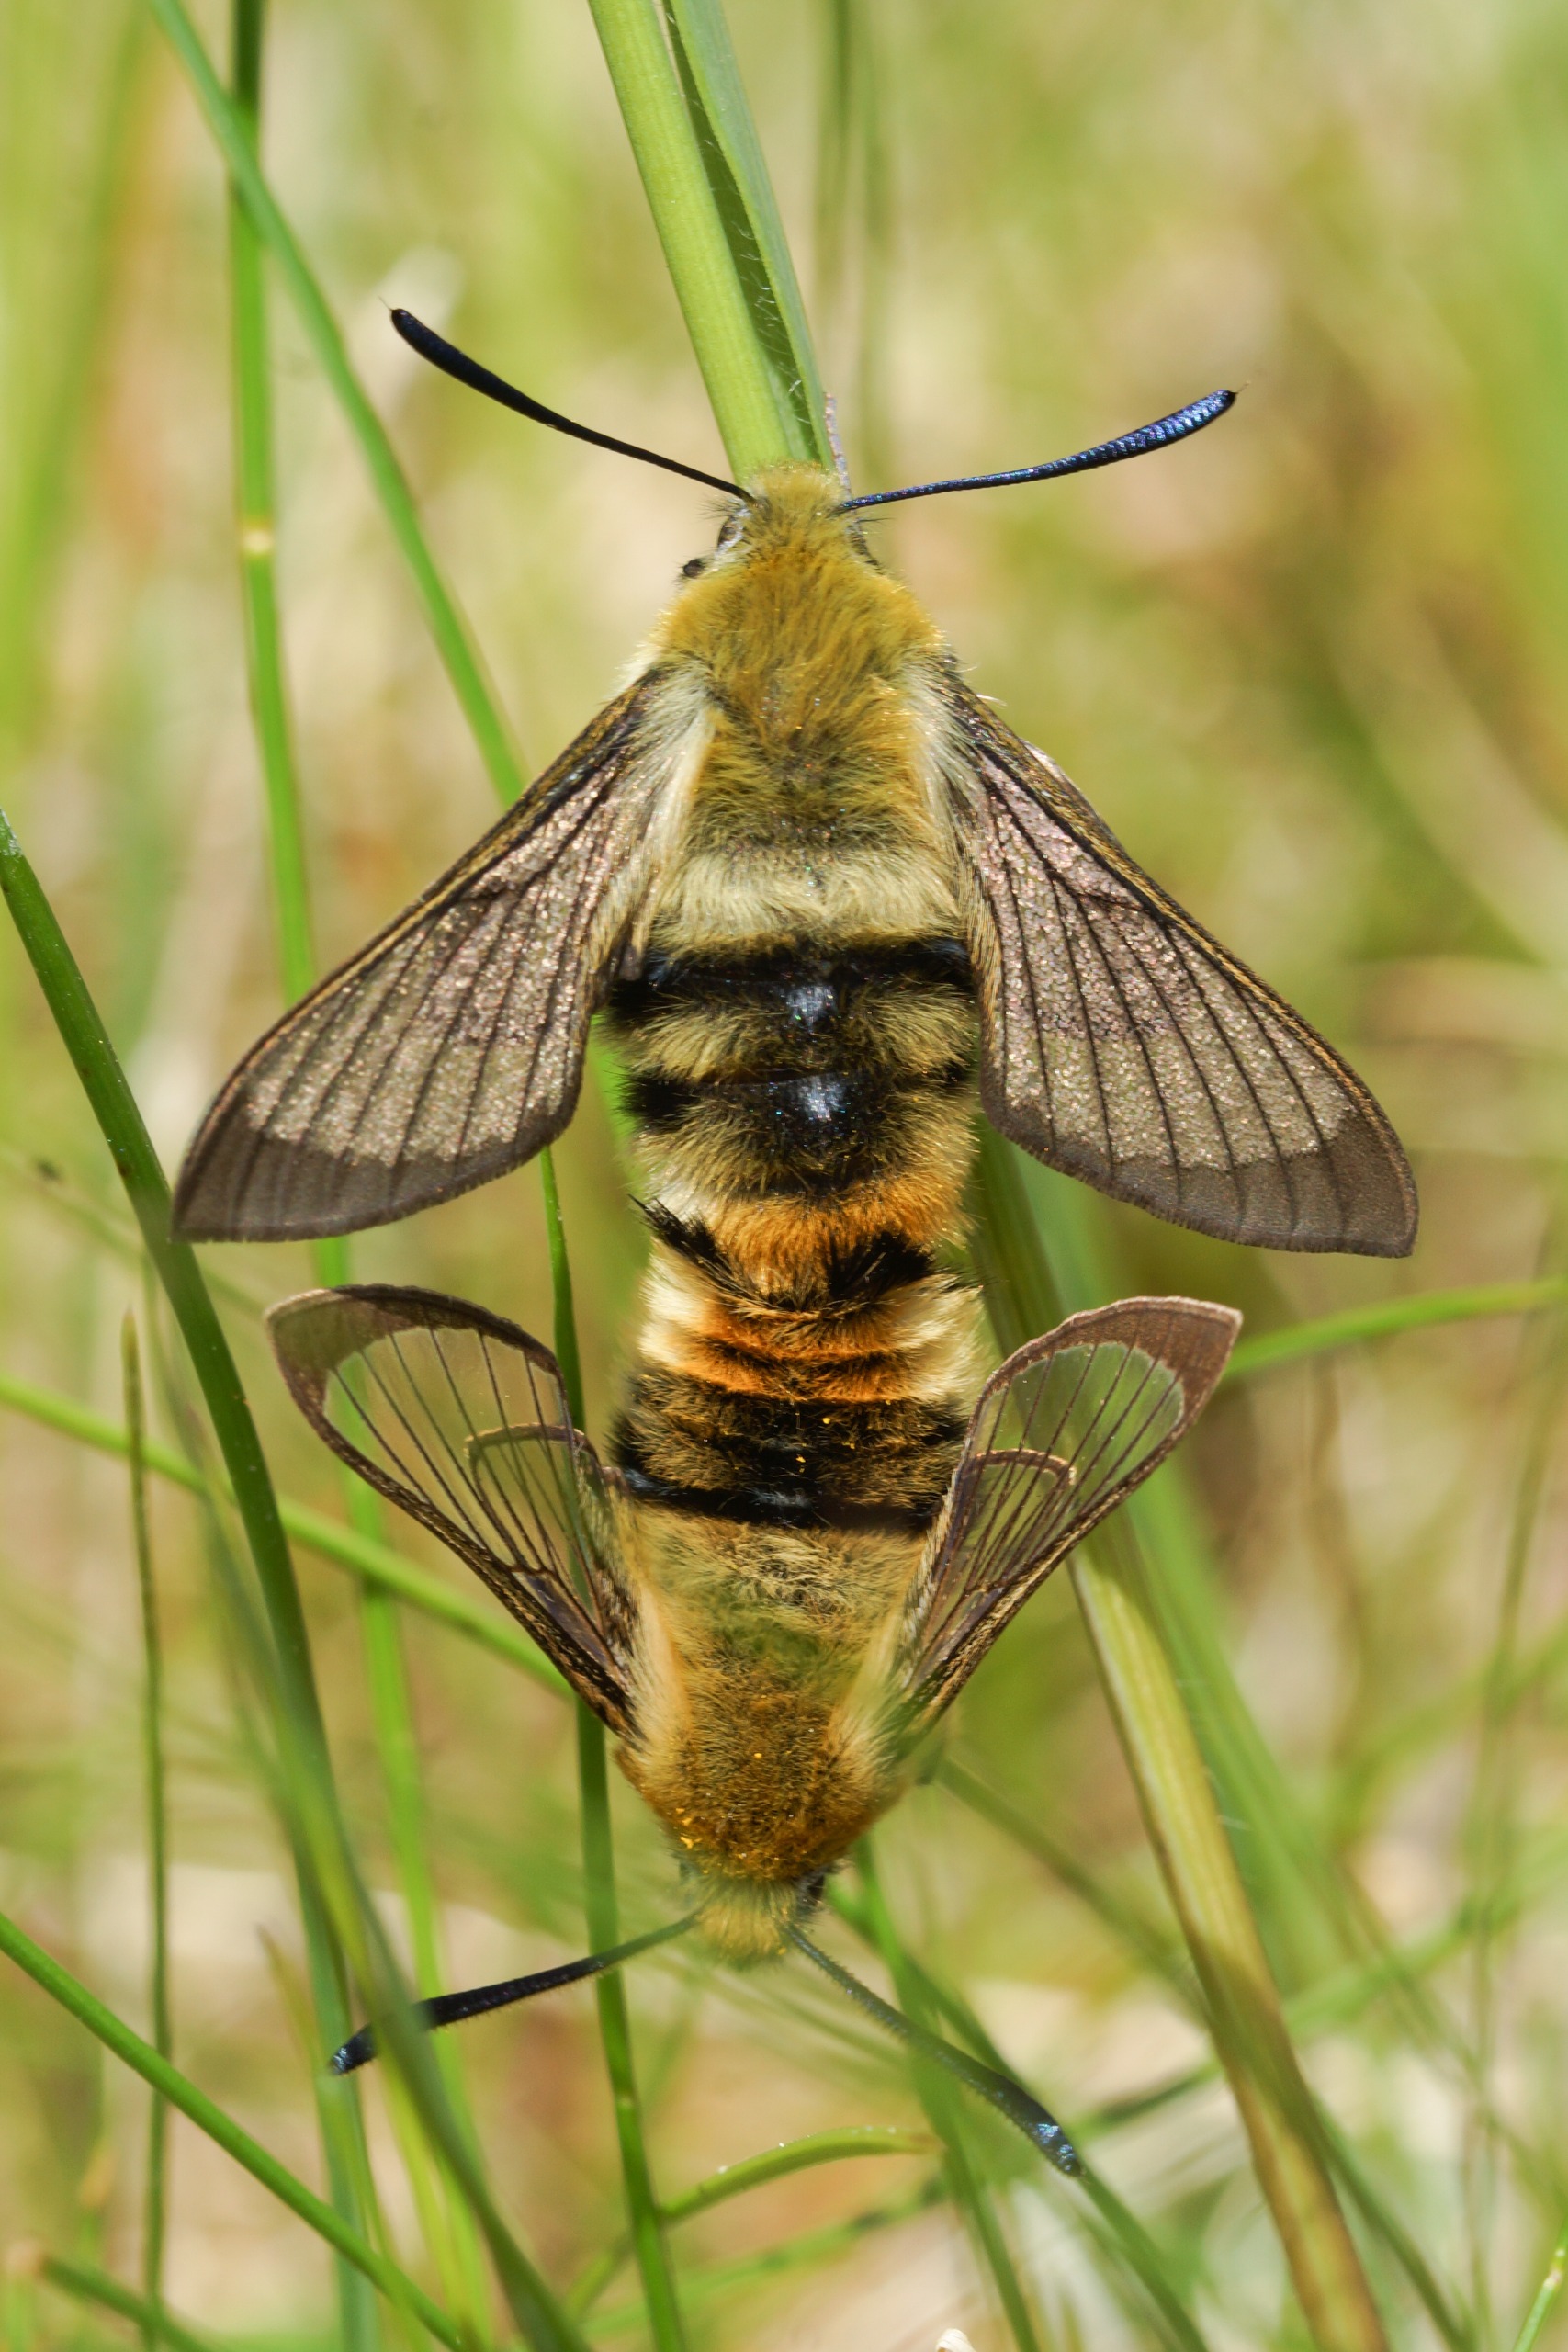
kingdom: Animalia
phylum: Arthropoda
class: Insecta
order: Lepidoptera
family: Sphingidae
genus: Hemaris
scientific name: Hemaris tityus
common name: Smalrandet humlebisværmer
